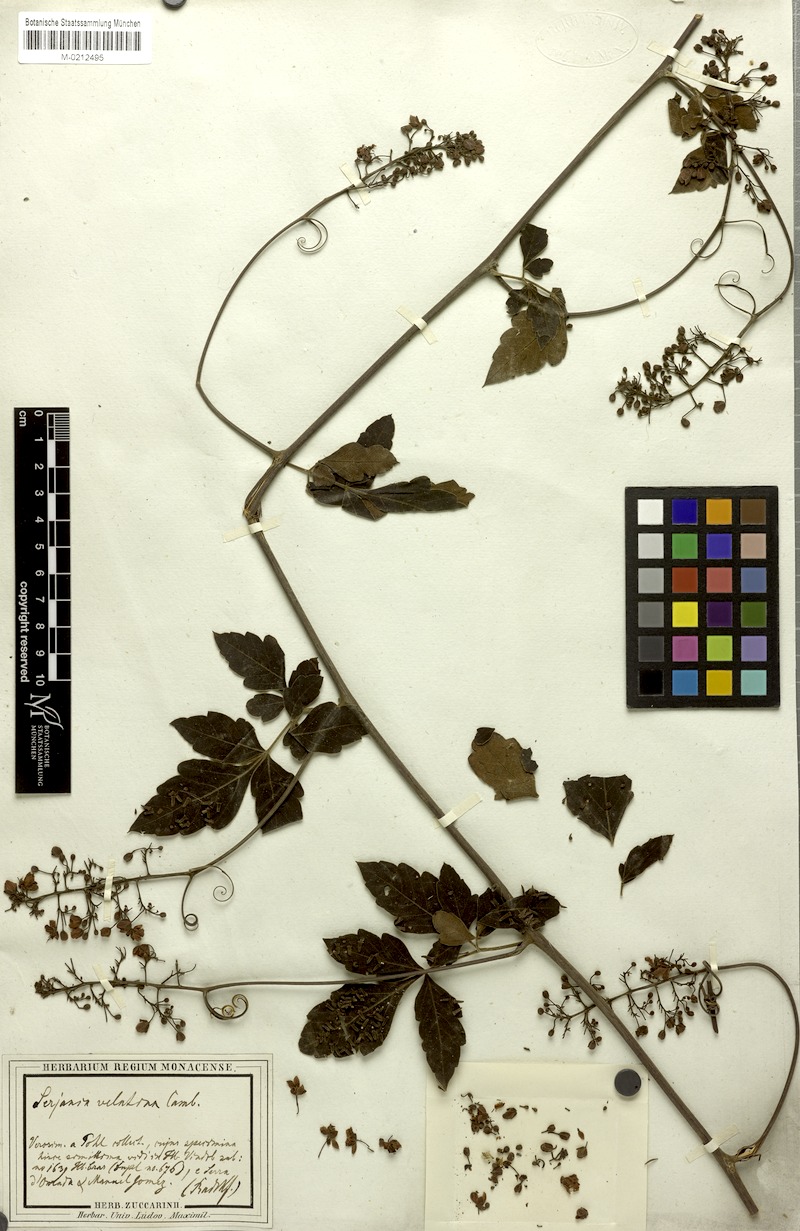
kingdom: Plantae
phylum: Tracheophyta
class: Magnoliopsida
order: Sapindales
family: Sapindaceae
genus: Serjania
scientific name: Serjania velutina
